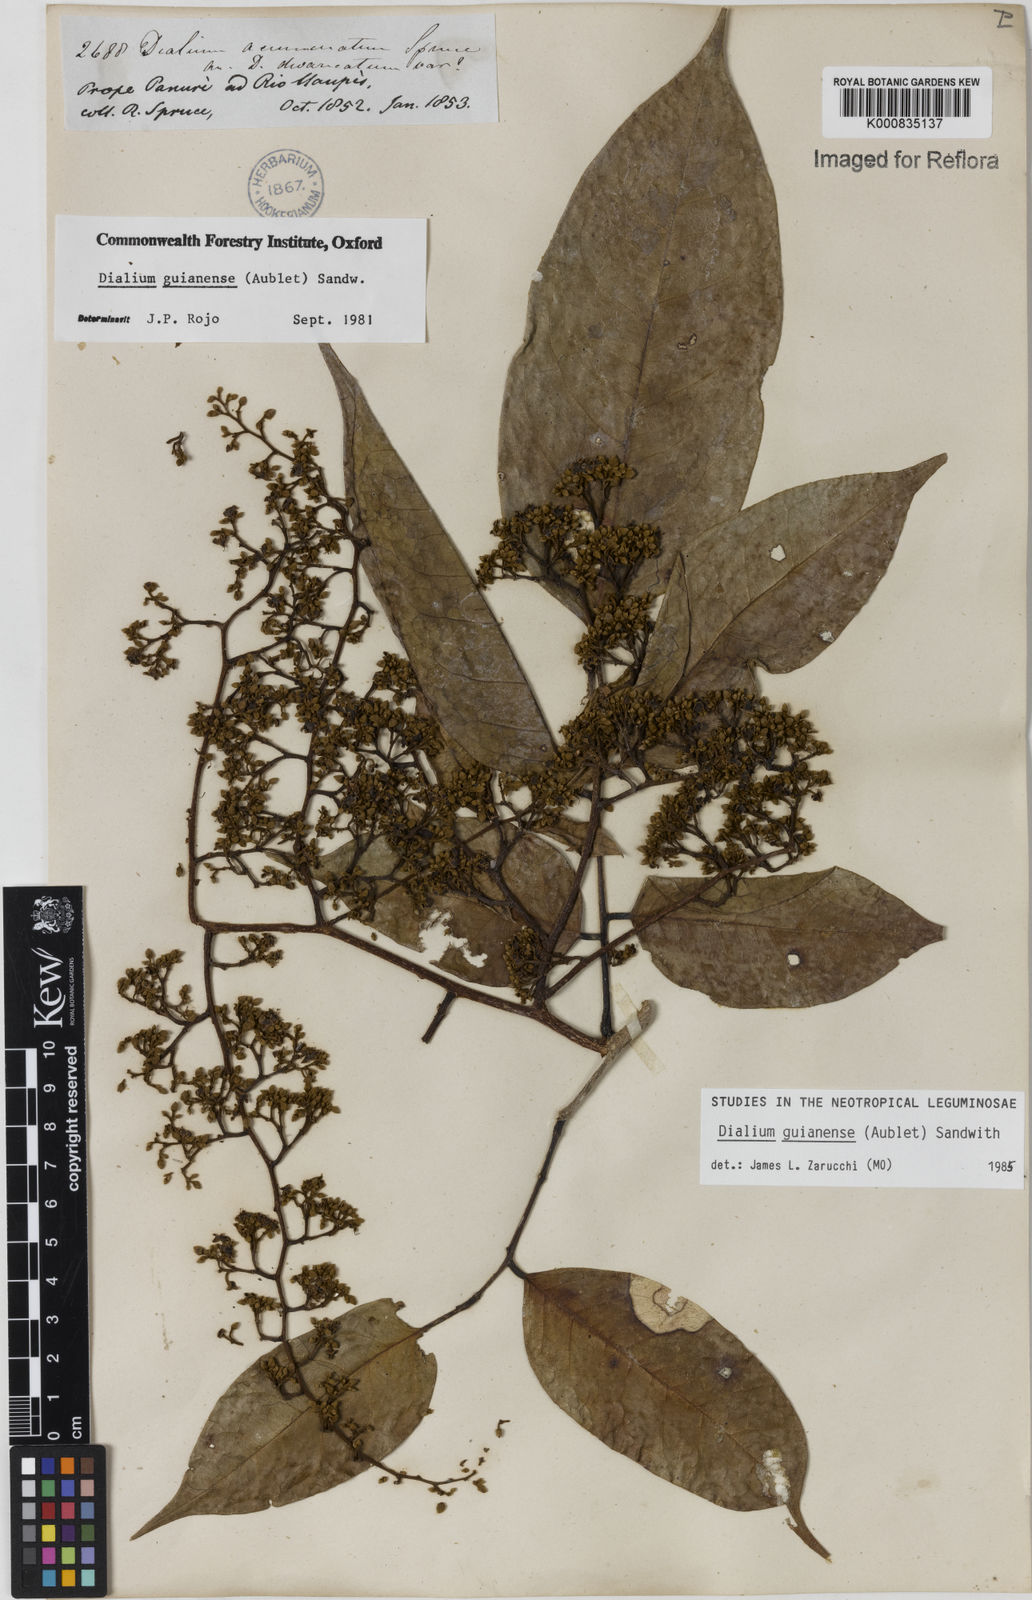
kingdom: Plantae
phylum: Tracheophyta
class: Magnoliopsida
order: Fabales
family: Fabaceae
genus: Dialium
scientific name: Dialium zenkeri
